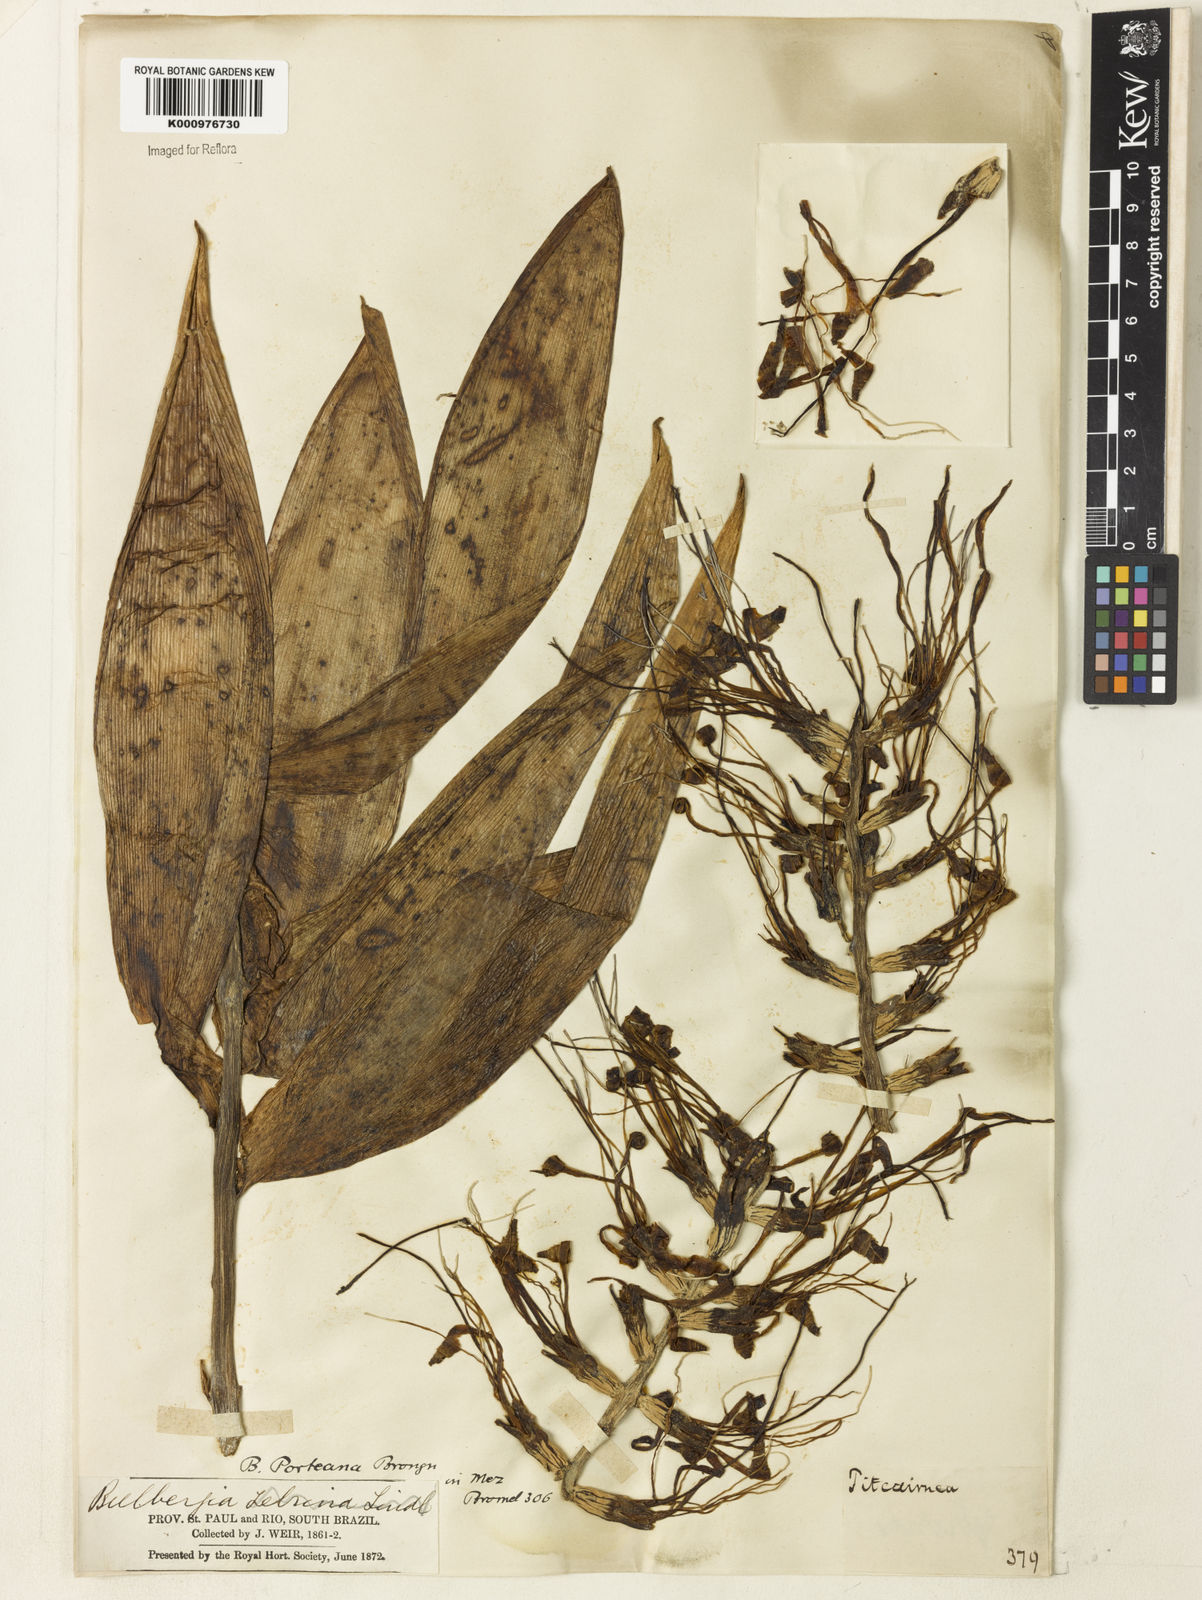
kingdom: Plantae
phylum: Tracheophyta
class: Liliopsida
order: Poales
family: Bromeliaceae
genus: Billbergia
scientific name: Billbergia porteana
